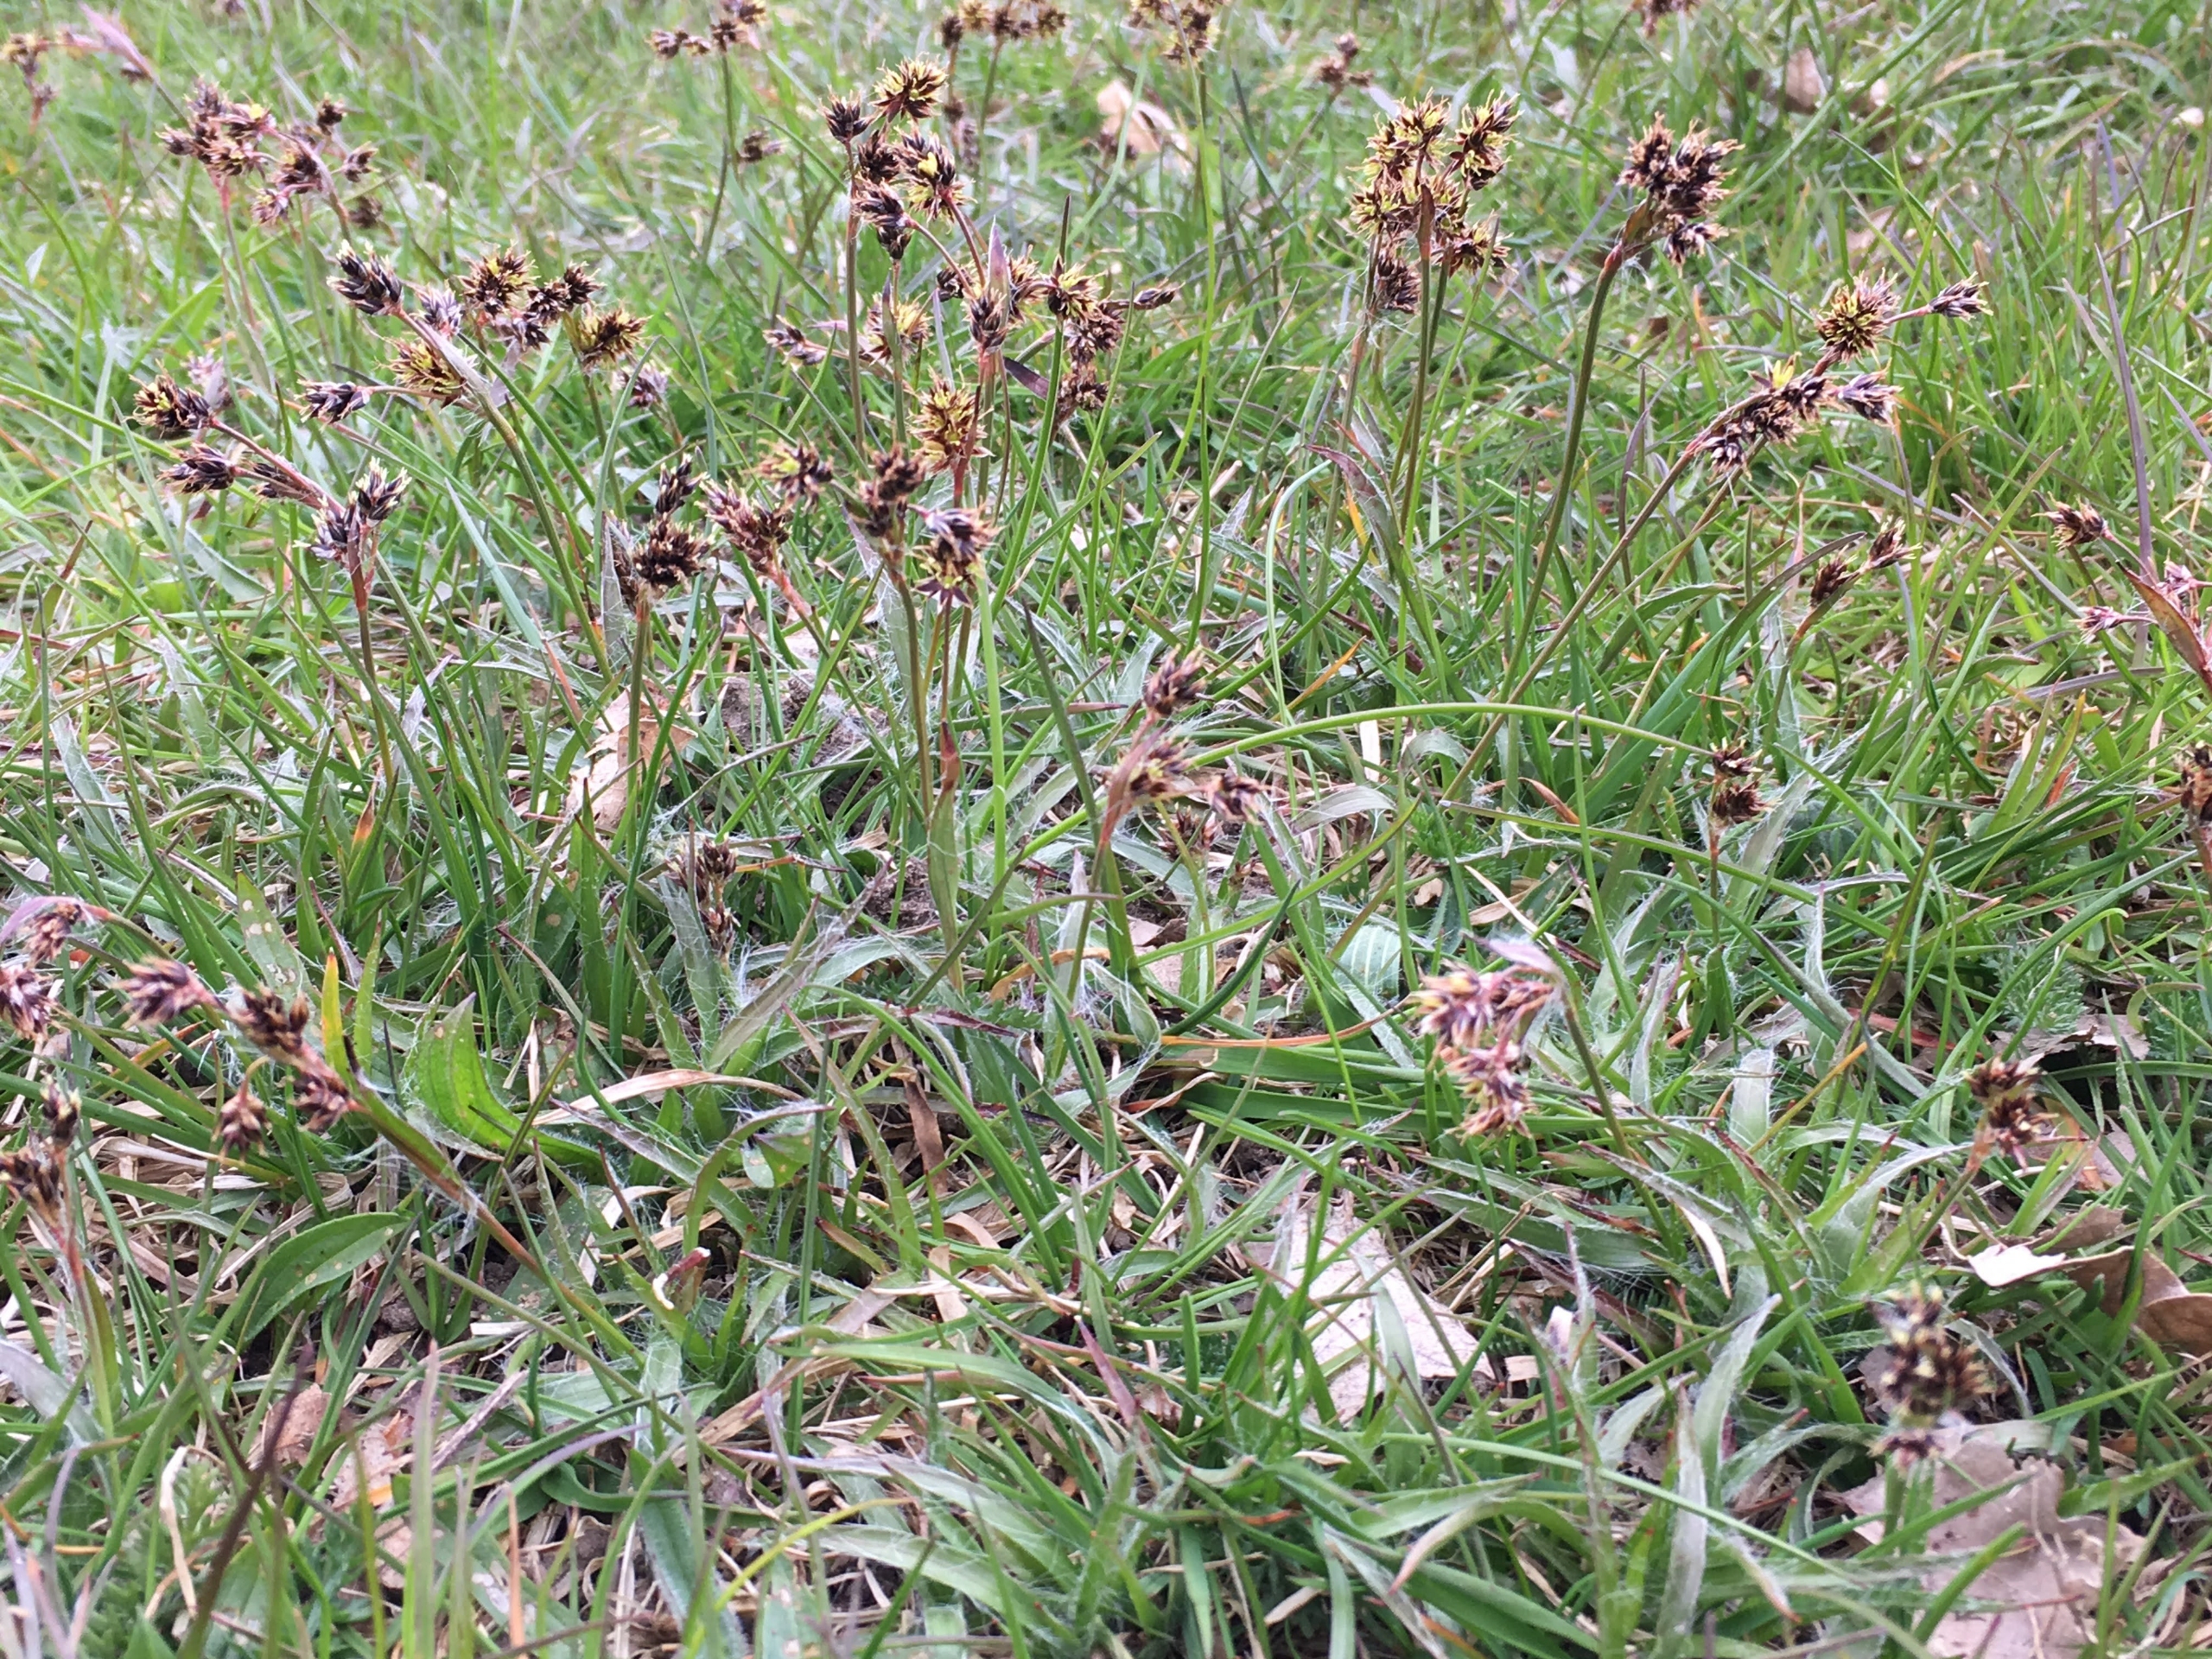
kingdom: Plantae
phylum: Tracheophyta
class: Liliopsida
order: Poales
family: Juncaceae
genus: Luzula
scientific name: Luzula campestris
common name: Mark-frytle
